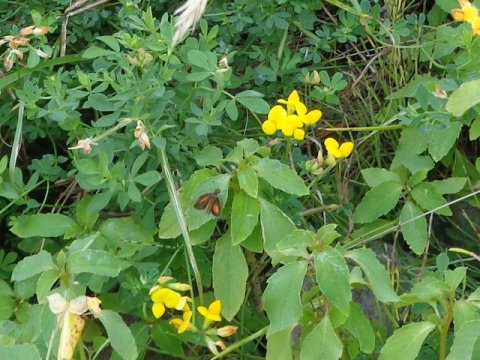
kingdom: Animalia
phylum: Arthropoda
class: Insecta
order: Lepidoptera
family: Hesperiidae
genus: Ancyloxypha
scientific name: Ancyloxypha numitor
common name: Least Skipper
